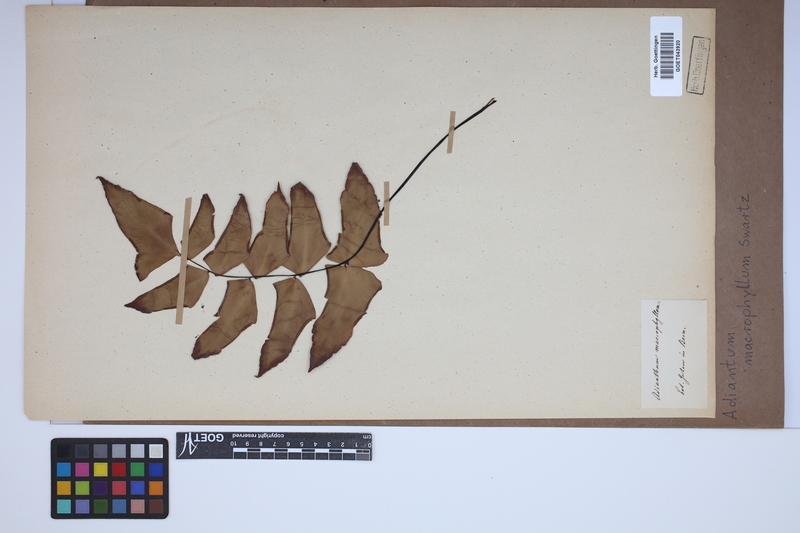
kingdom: Plantae
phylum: Tracheophyta
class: Polypodiopsida
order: Polypodiales
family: Pteridaceae
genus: Adiantum
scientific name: Adiantum macrophyllum
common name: Largeleaf maidenhair
